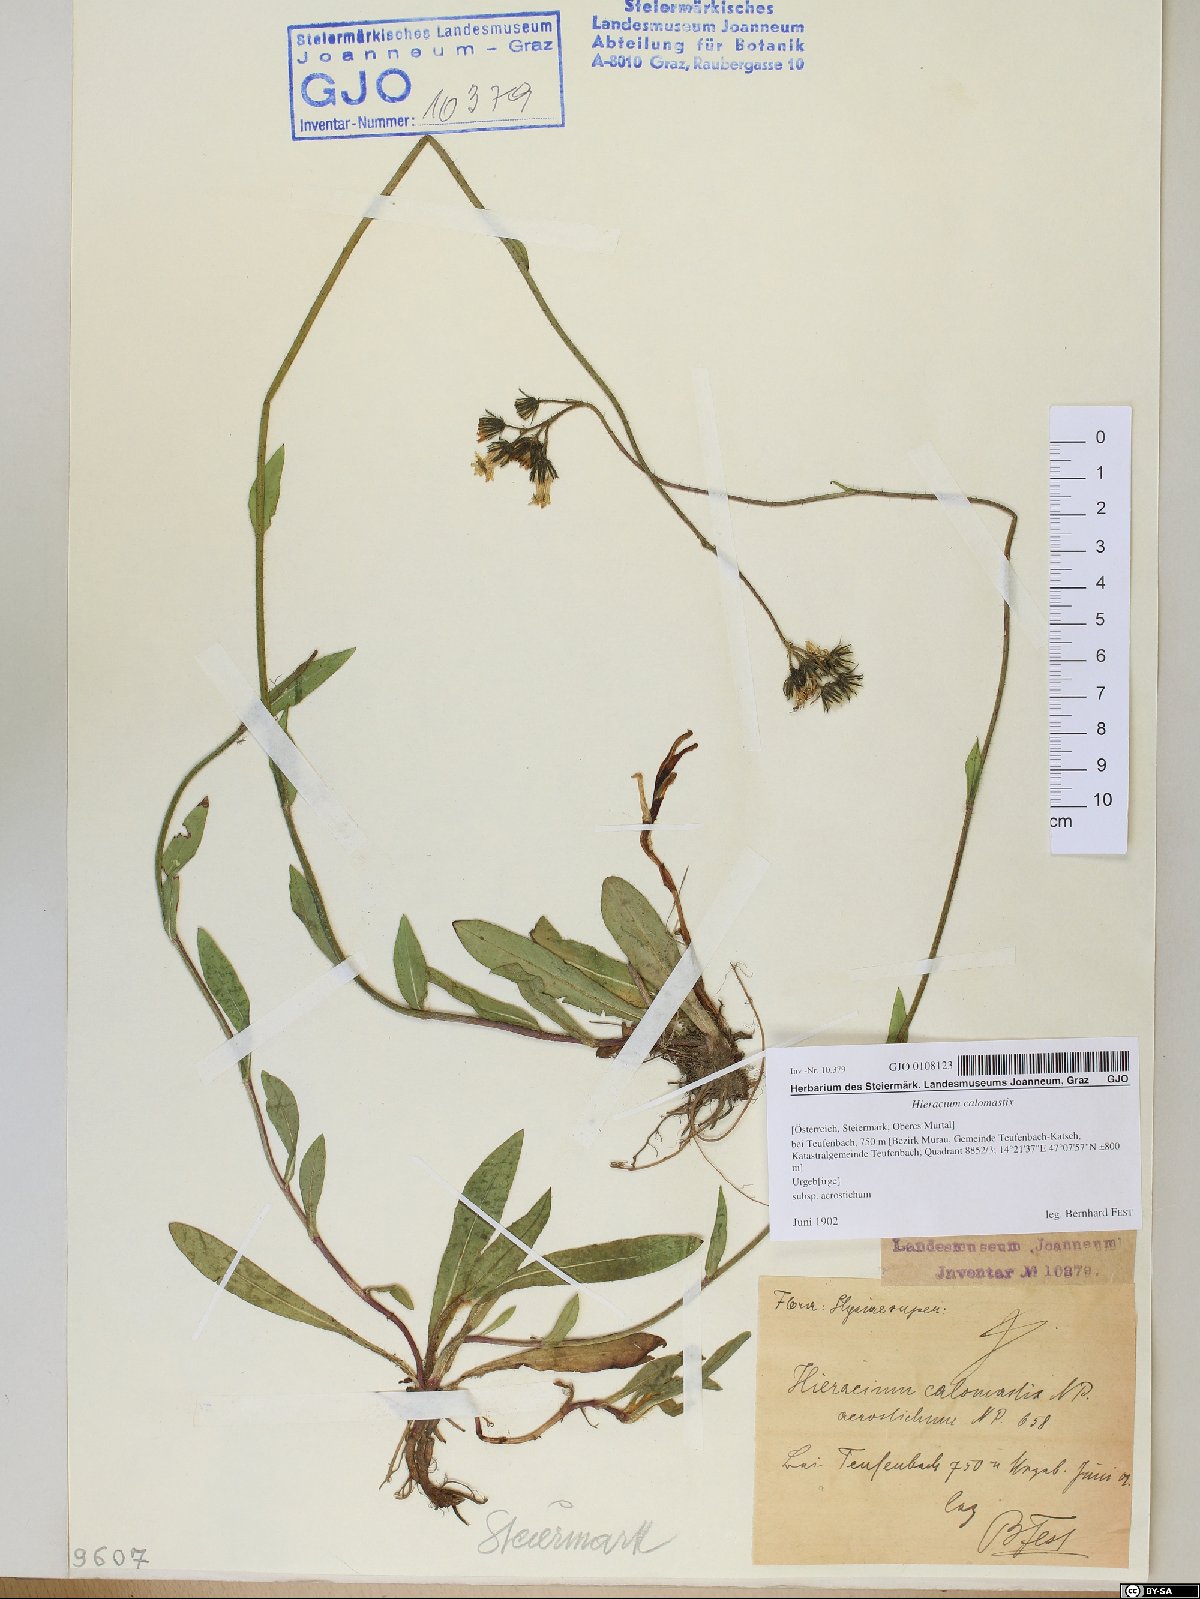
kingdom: Plantae
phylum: Tracheophyta
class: Magnoliopsida
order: Asterales
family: Asteraceae
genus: Pilosella
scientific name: Pilosella calomastix
